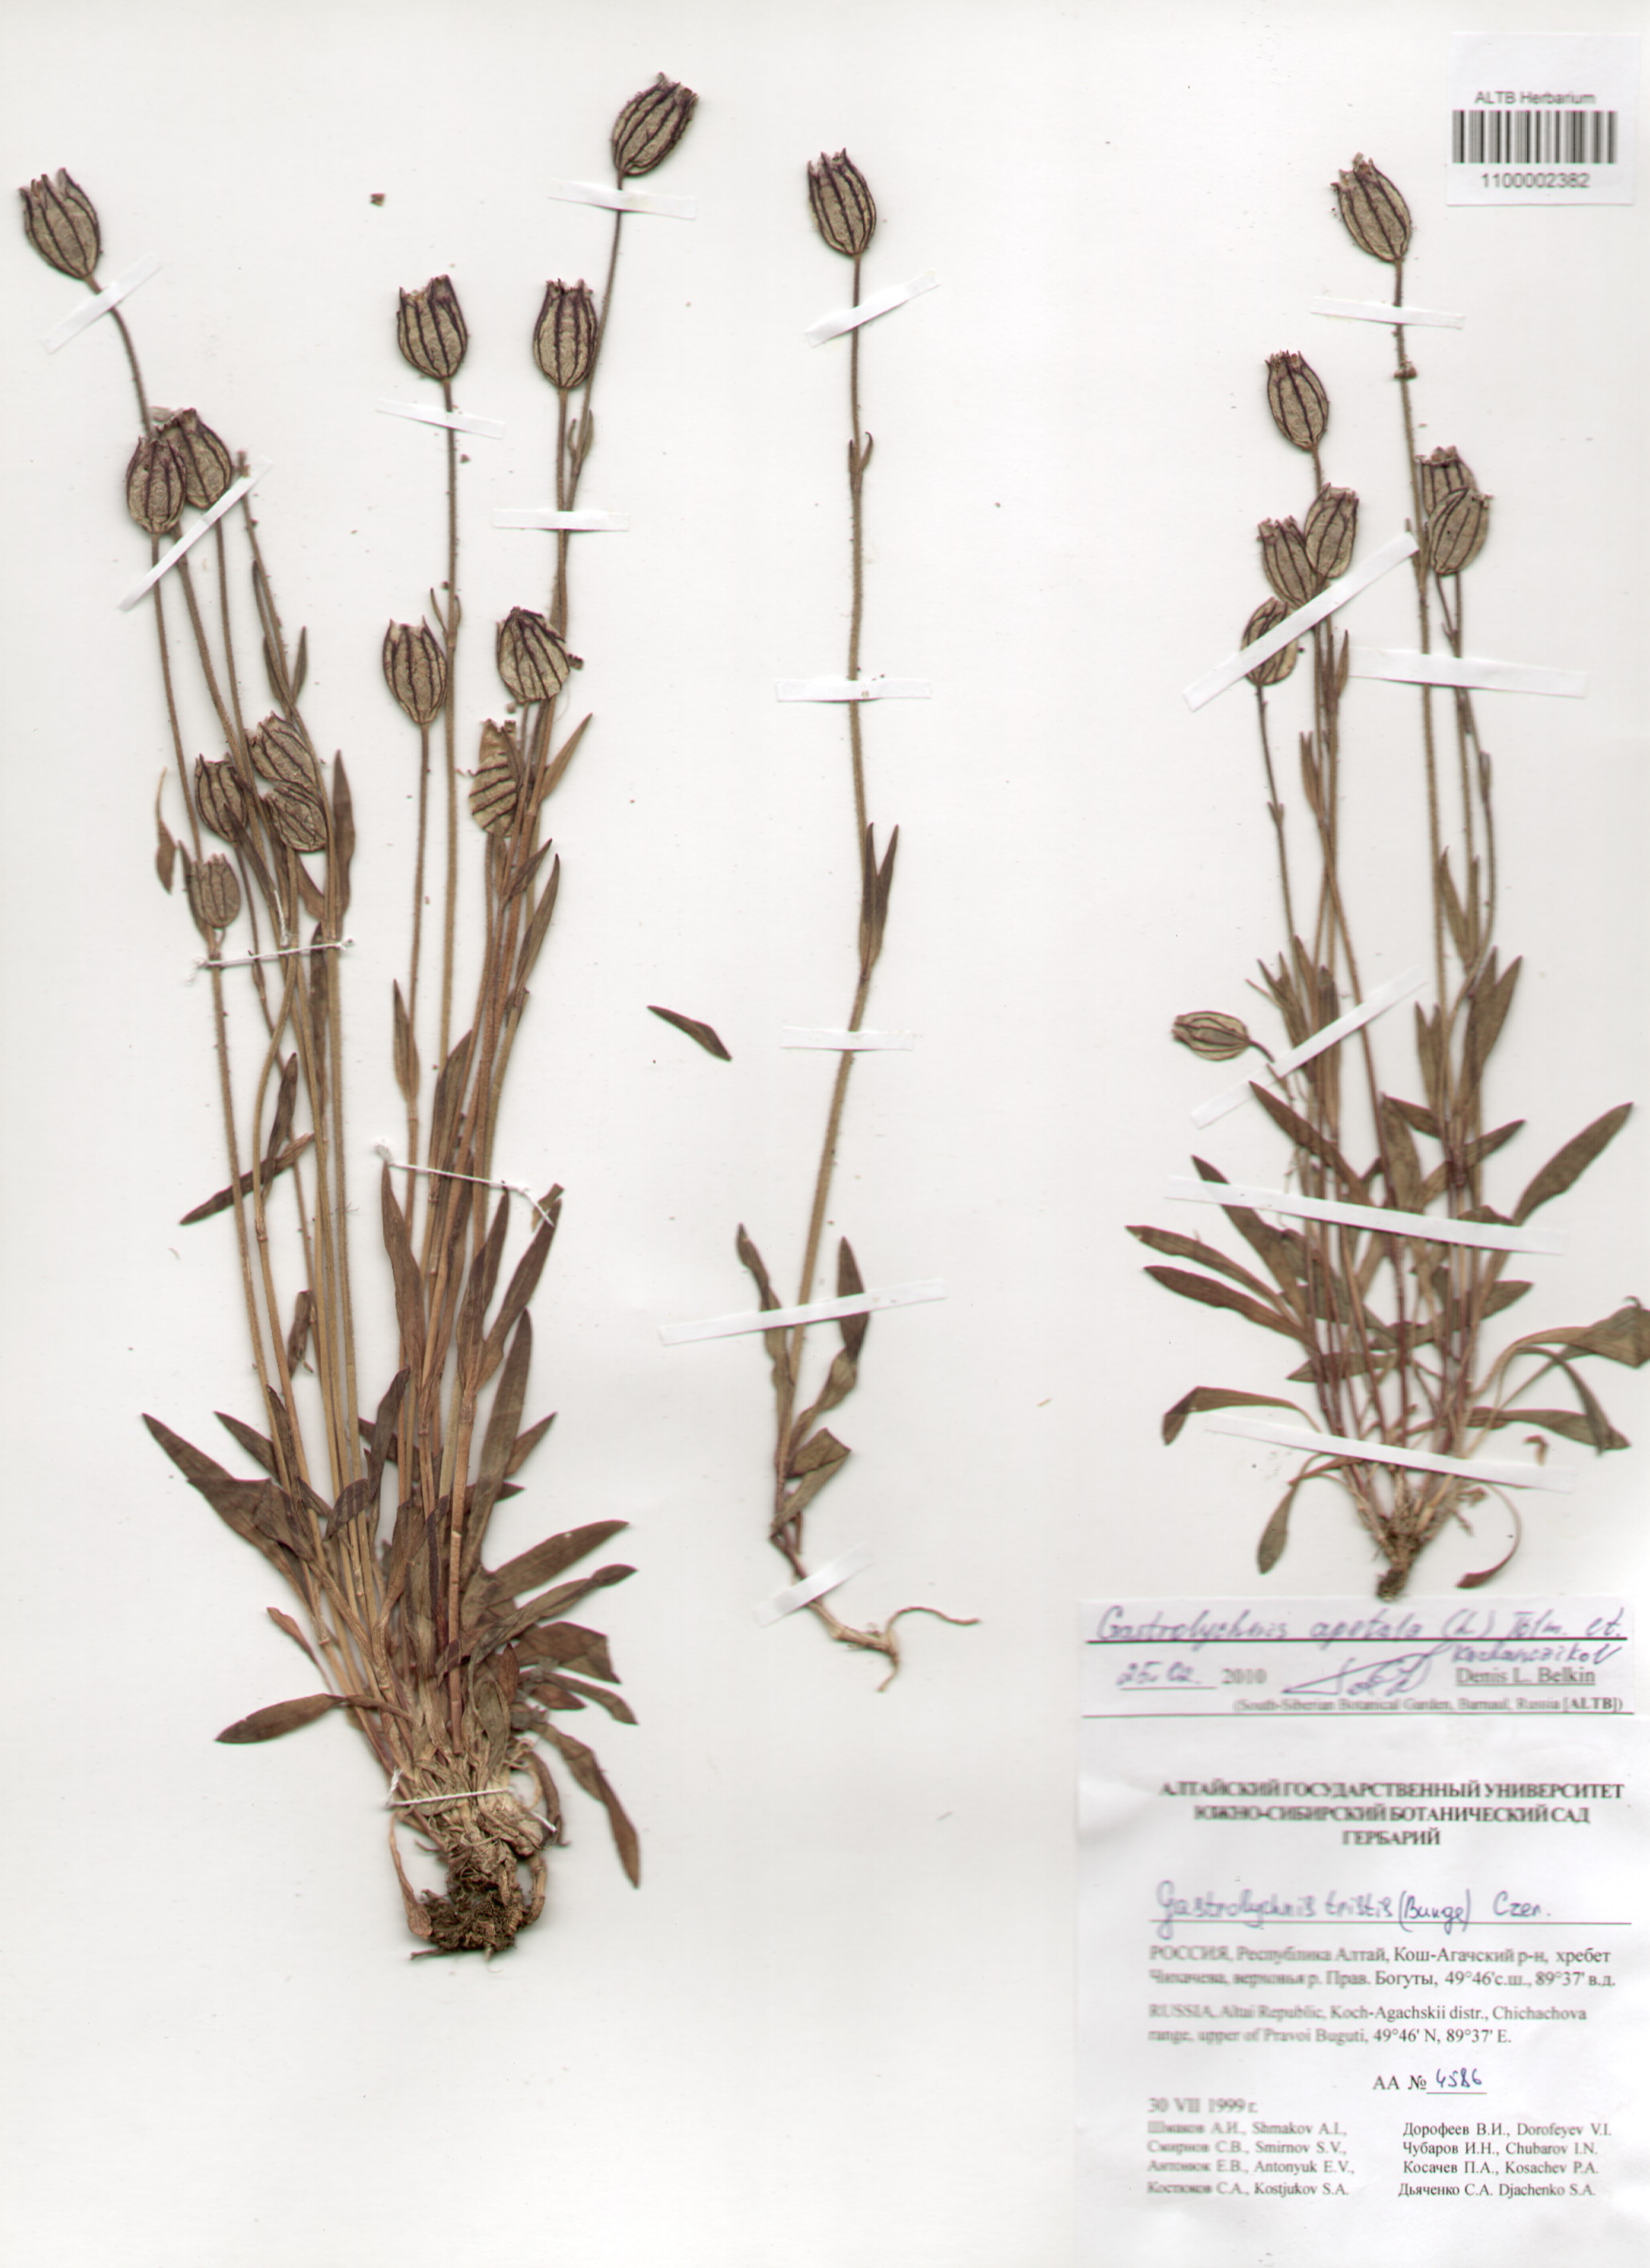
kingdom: Plantae
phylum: Tracheophyta
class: Magnoliopsida
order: Caryophyllales
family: Caryophyllaceae
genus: Silene
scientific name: Silene wahlbergella
